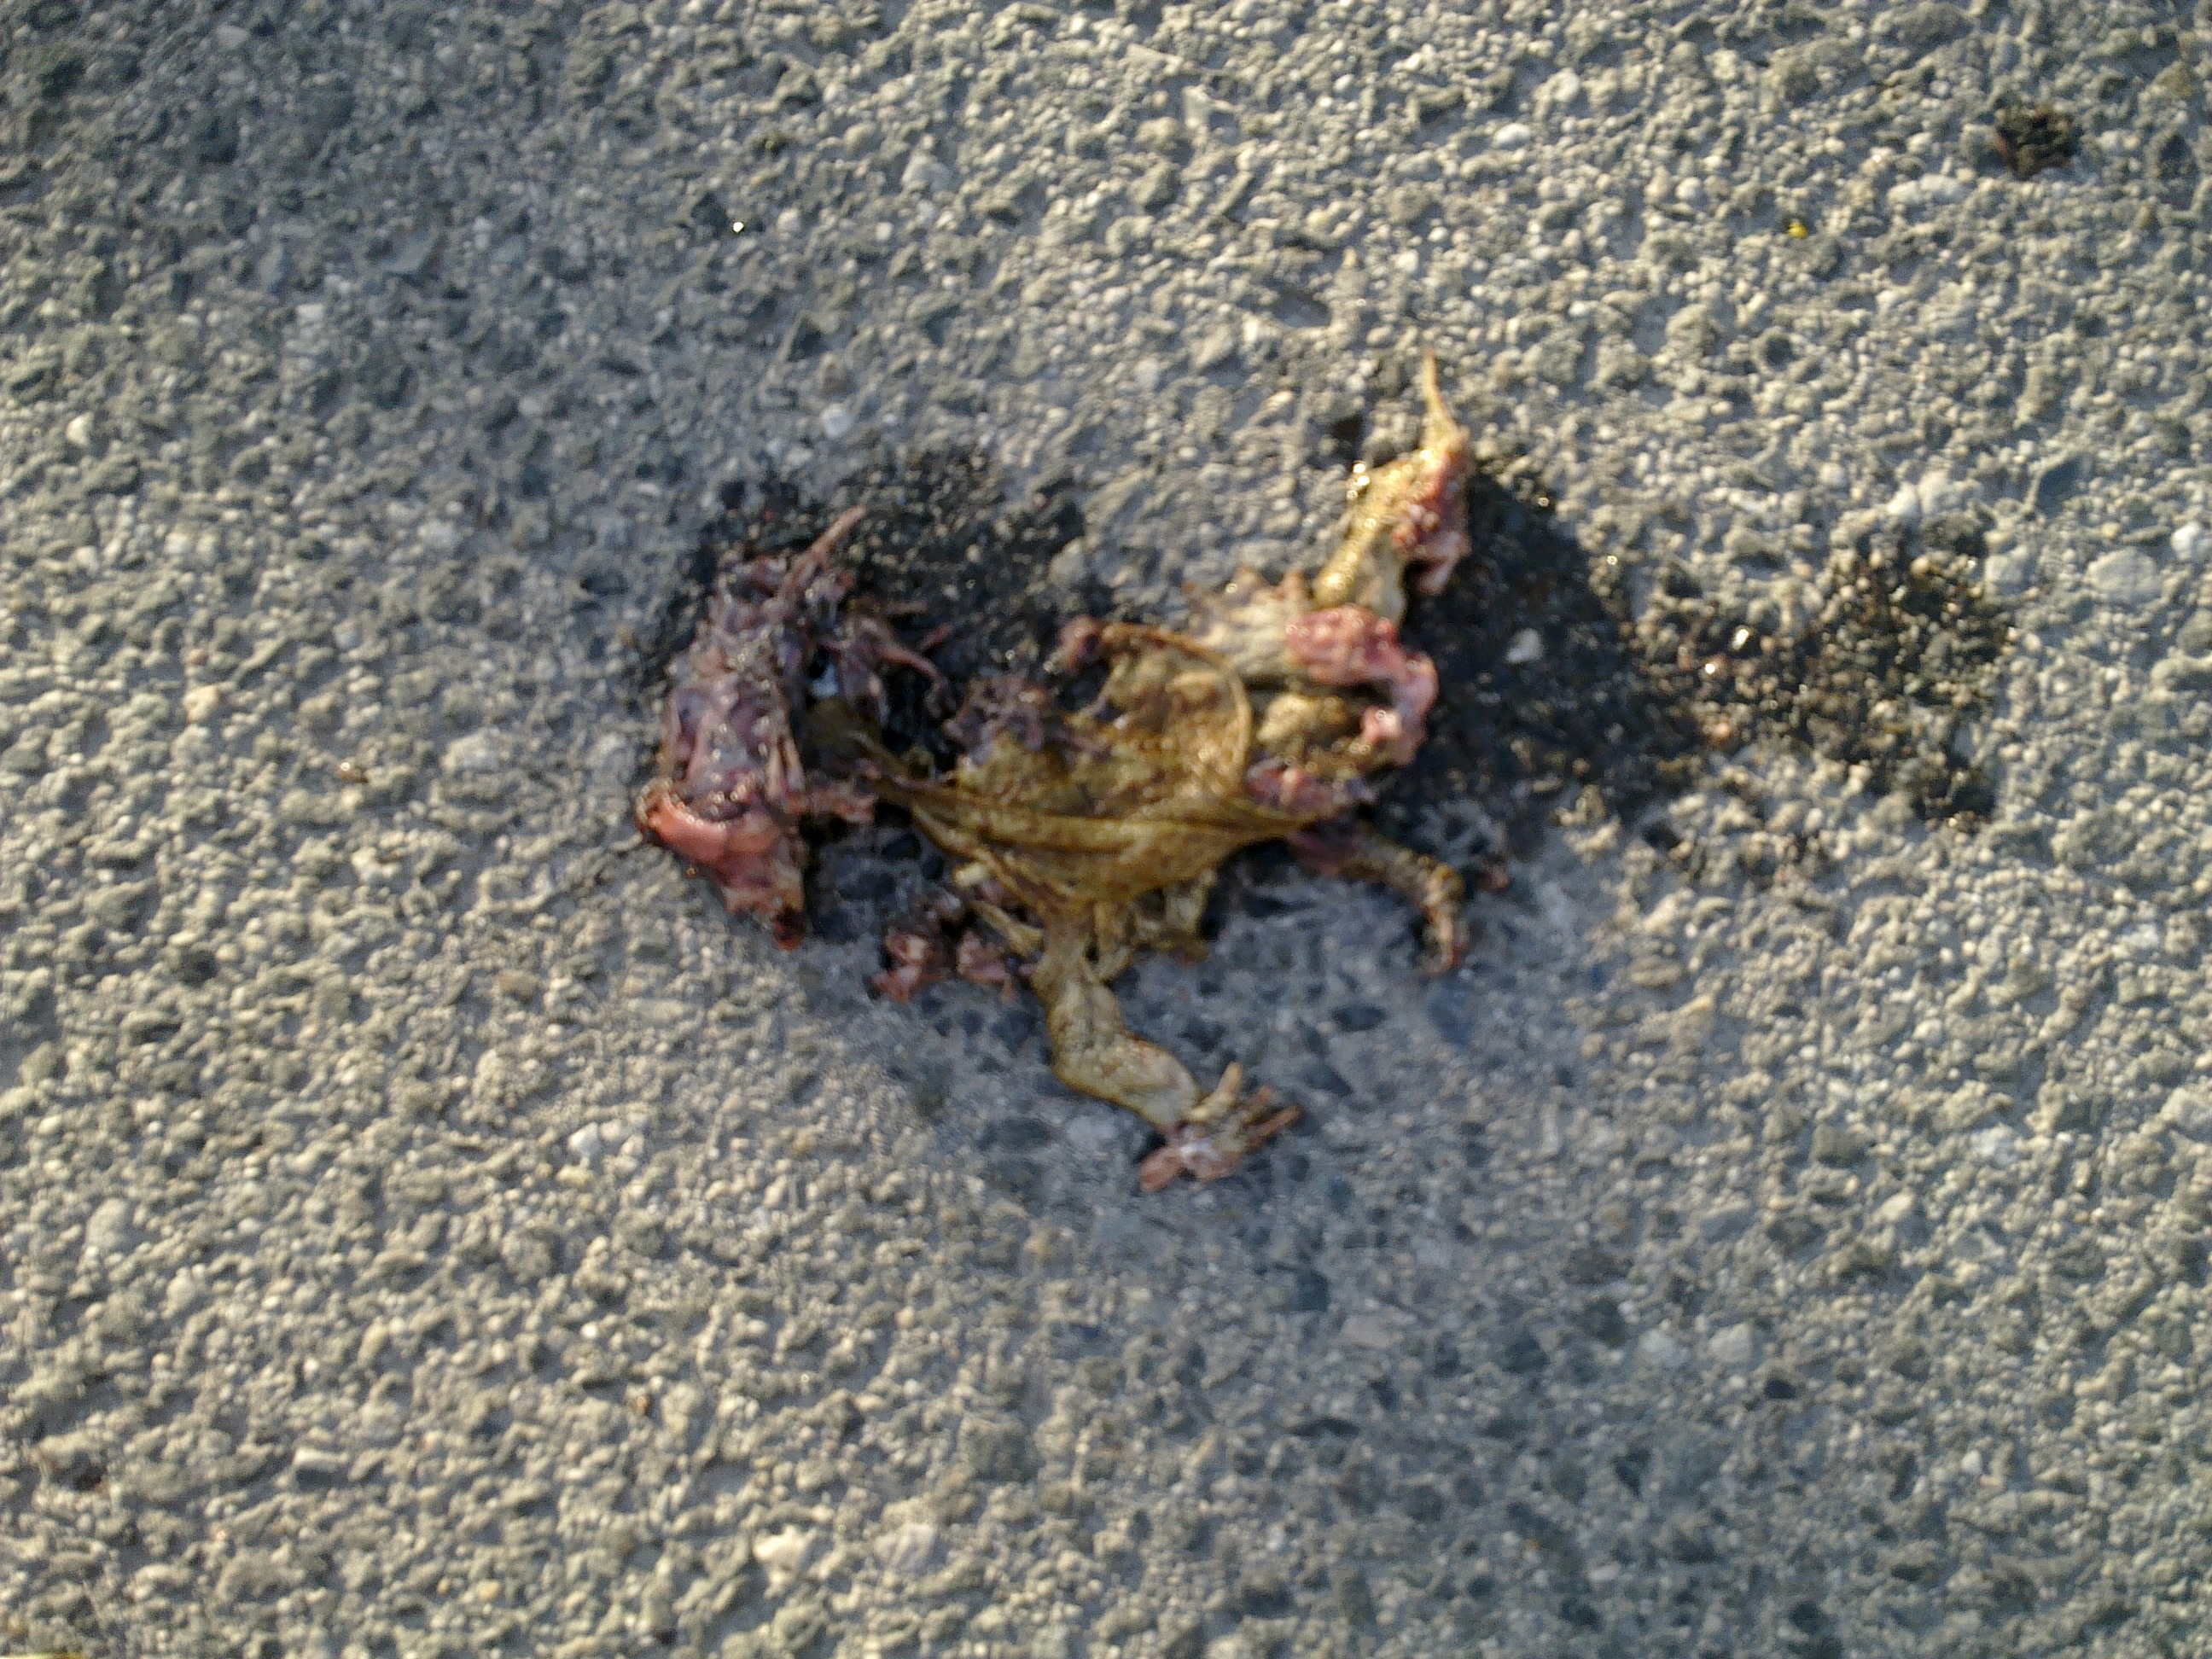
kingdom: Animalia
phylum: Chordata
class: Amphibia
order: Anura
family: Bufonidae
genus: Bufo
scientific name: Bufo bufo
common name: Common toad
